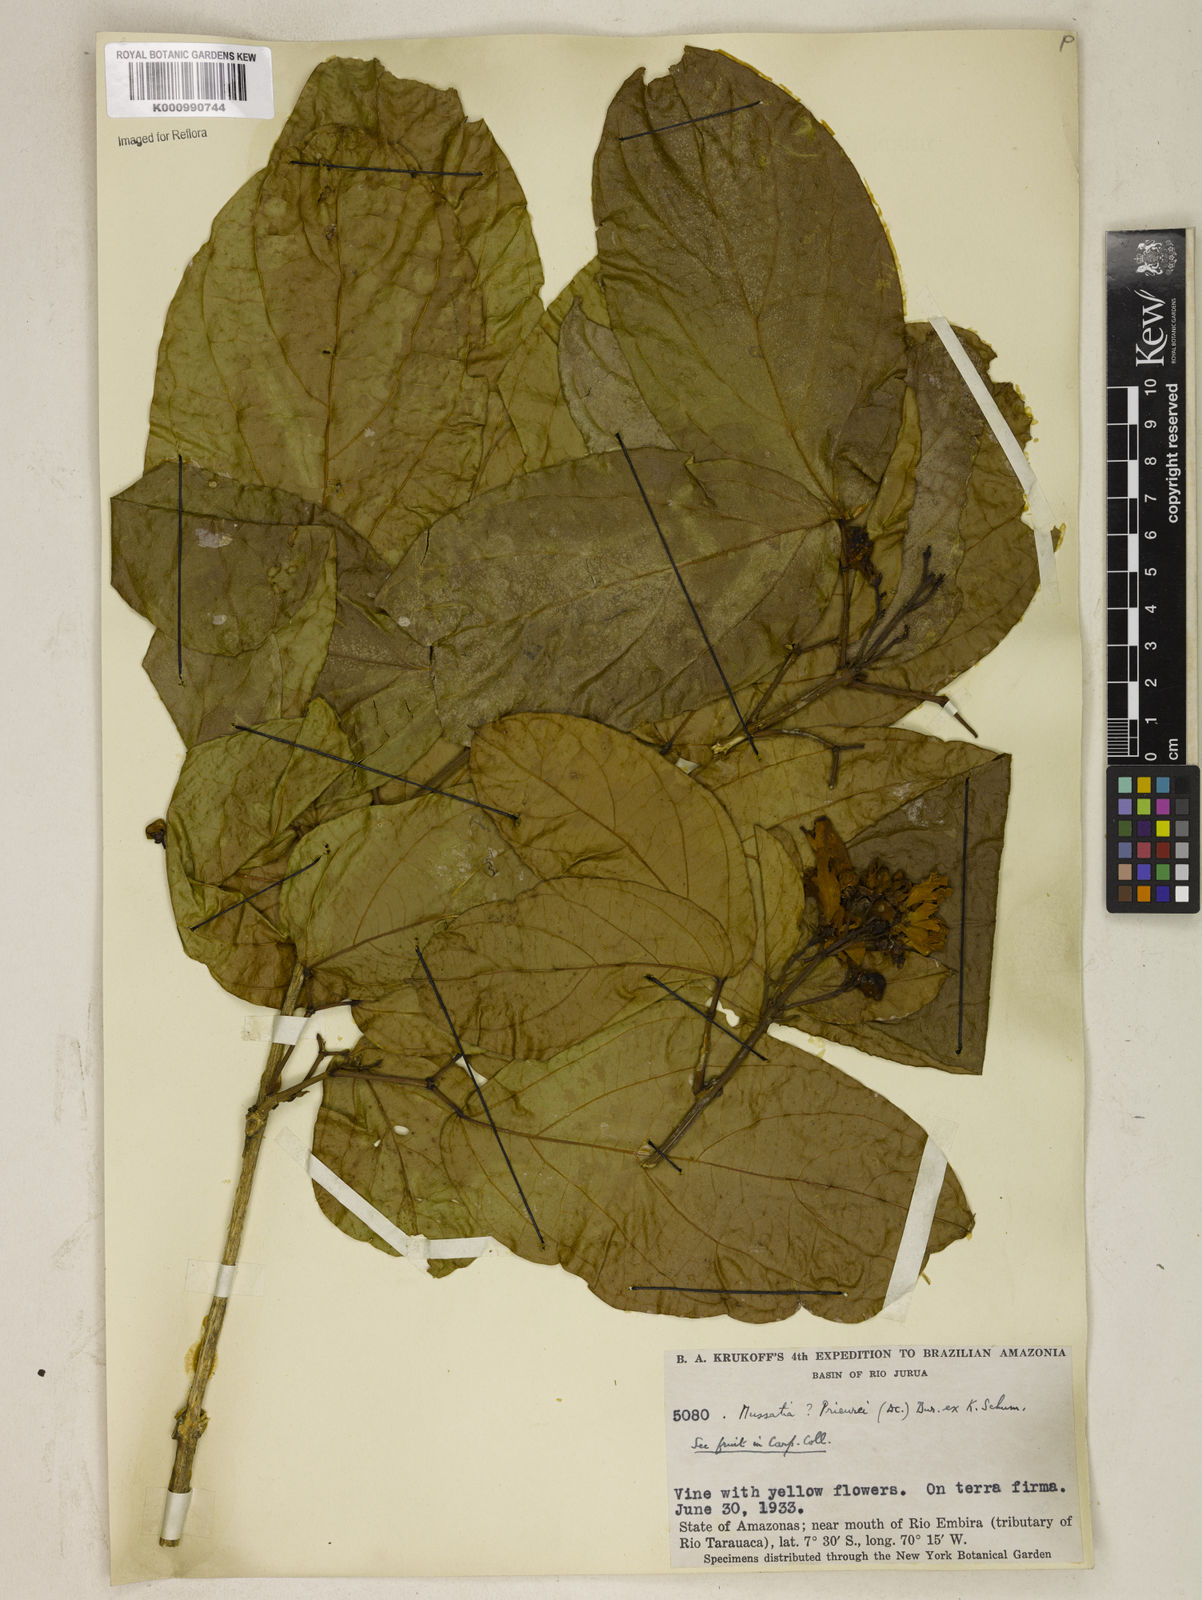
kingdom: Plantae
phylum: Tracheophyta
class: Magnoliopsida
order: Lamiales
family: Bignoniaceae
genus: Mussatia
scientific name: Mussatia
